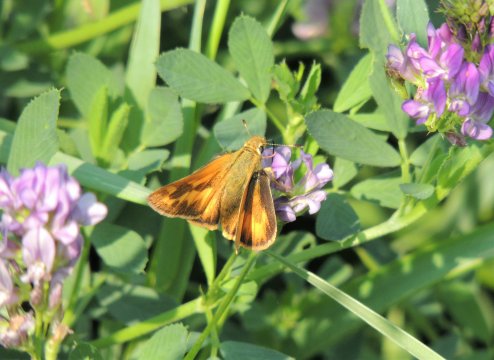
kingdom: Animalia
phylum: Arthropoda
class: Insecta
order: Lepidoptera
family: Hesperiidae
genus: Ochlodes
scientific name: Ochlodes sylvanoides
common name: Woodland Skipper
